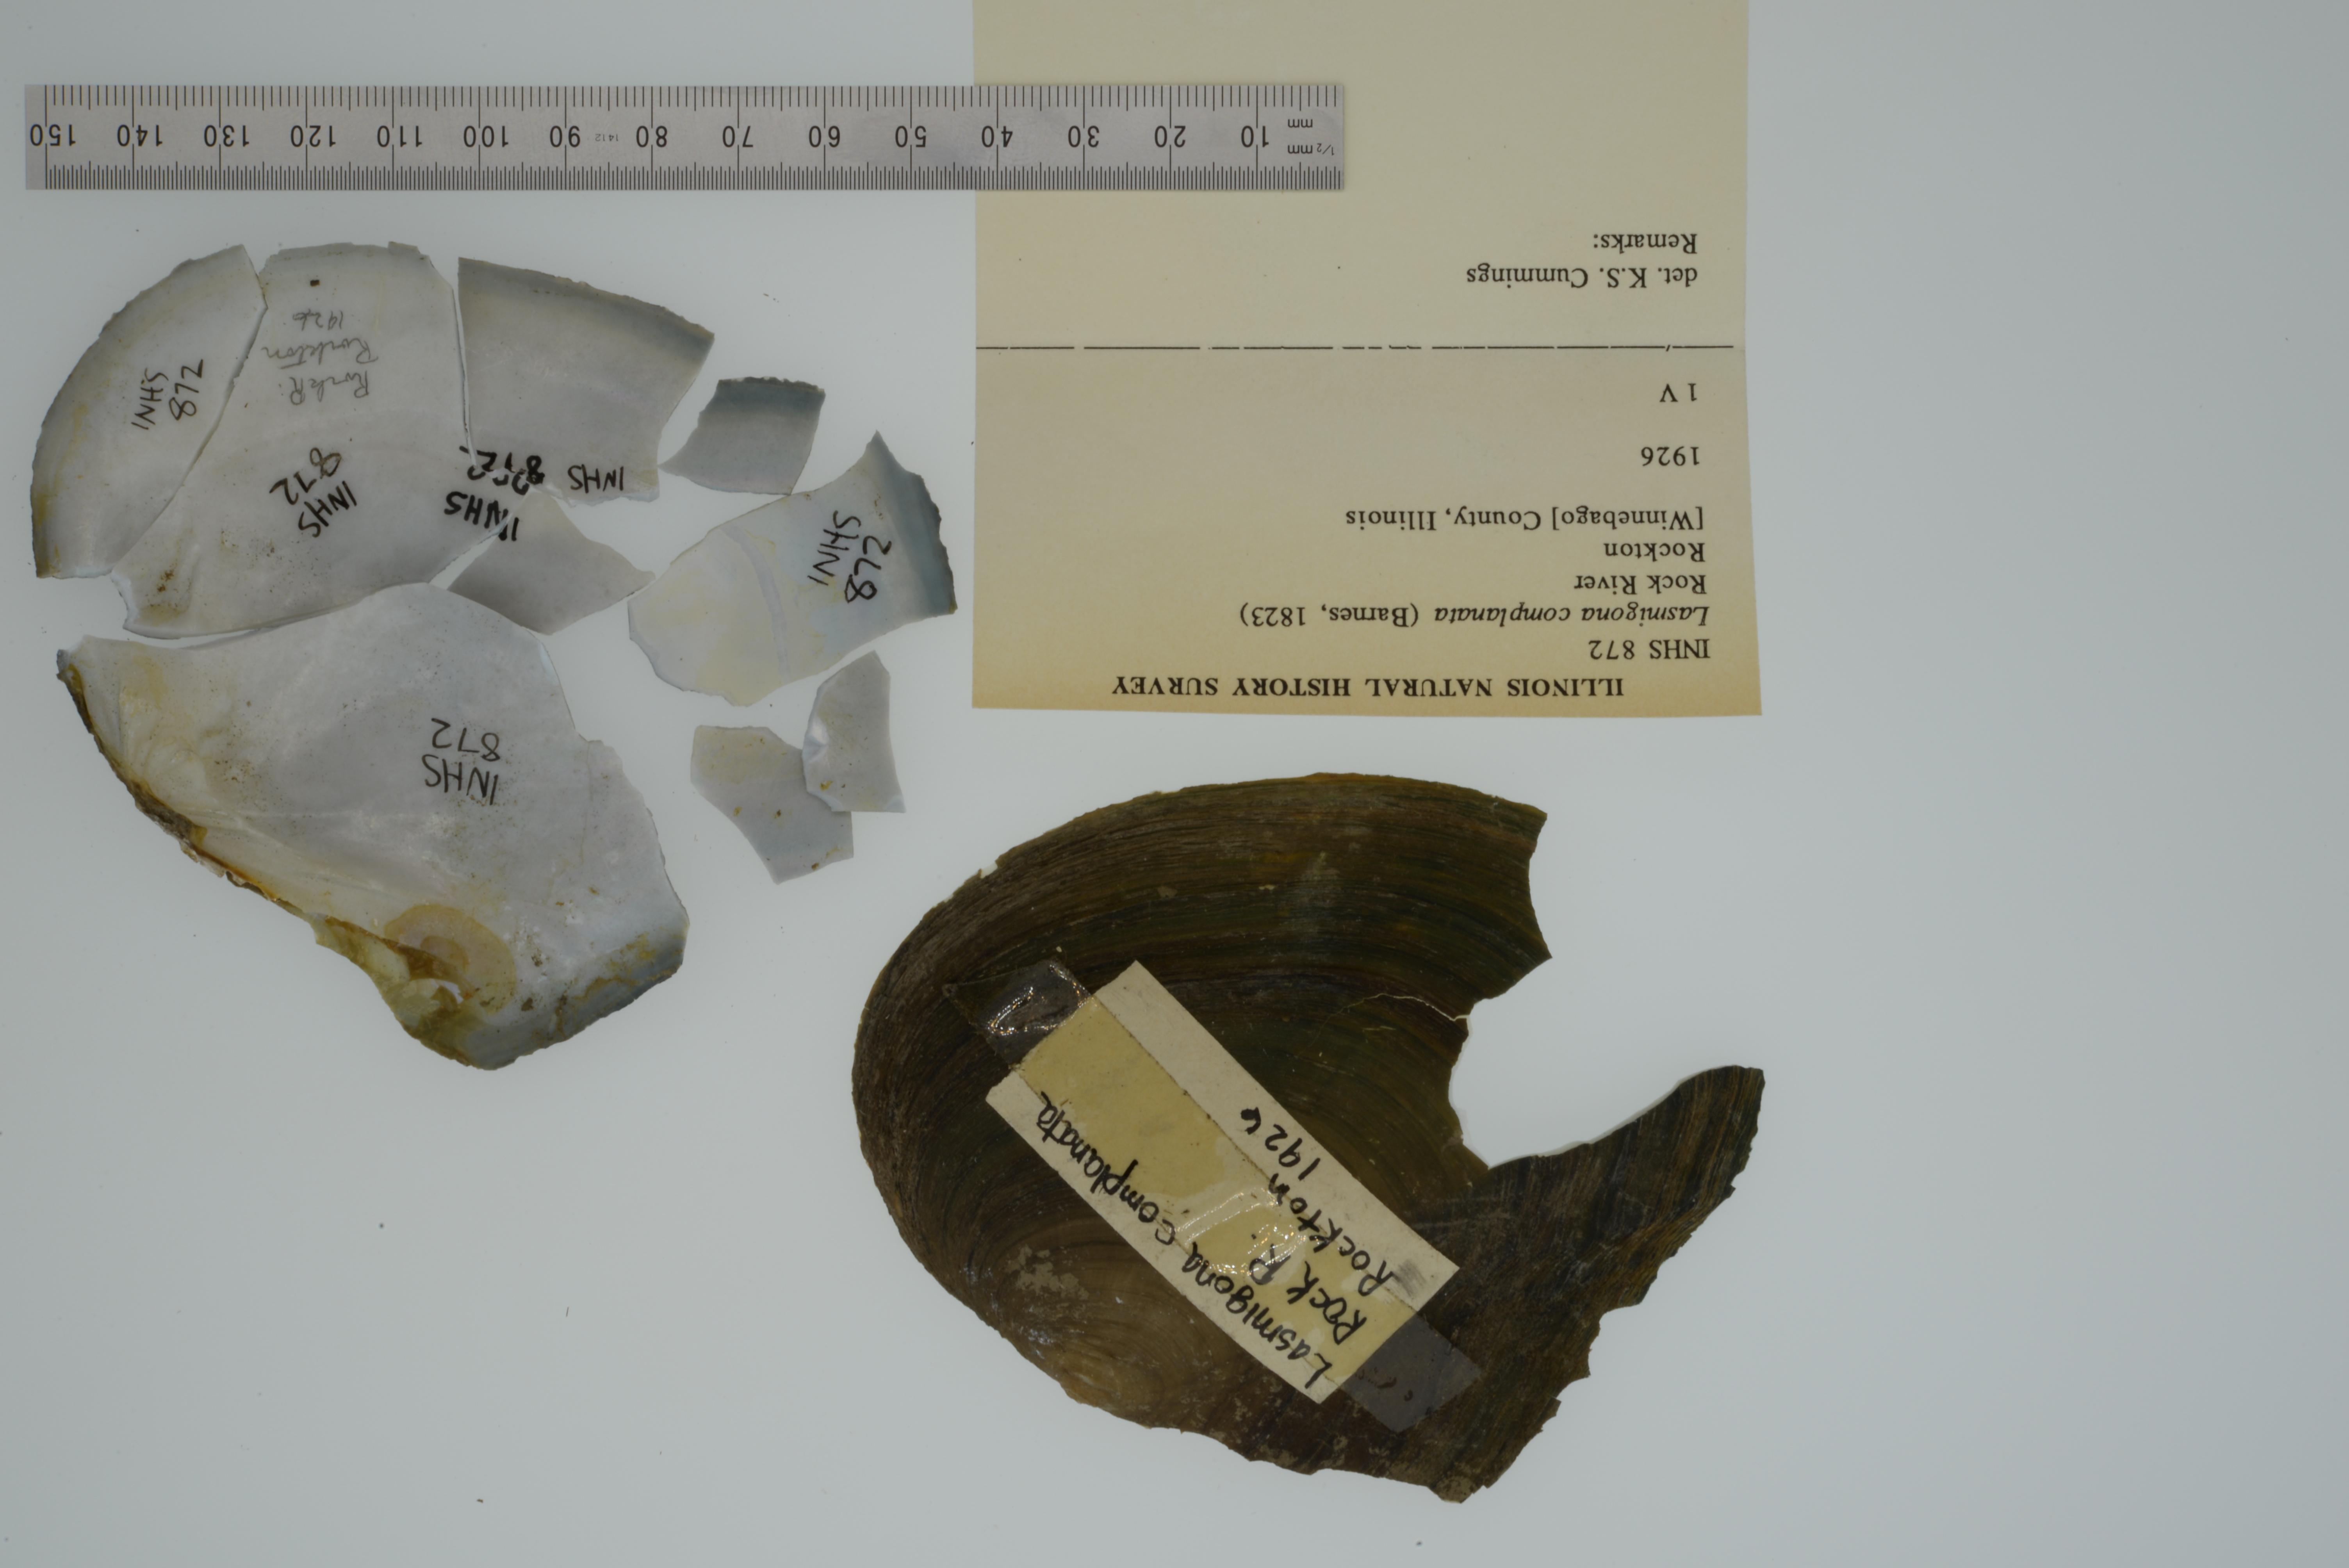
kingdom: Animalia
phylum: Mollusca
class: Bivalvia
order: Unionida
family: Unionidae
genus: Lasmigona
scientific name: Lasmigona complanata
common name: White heelsplitter
